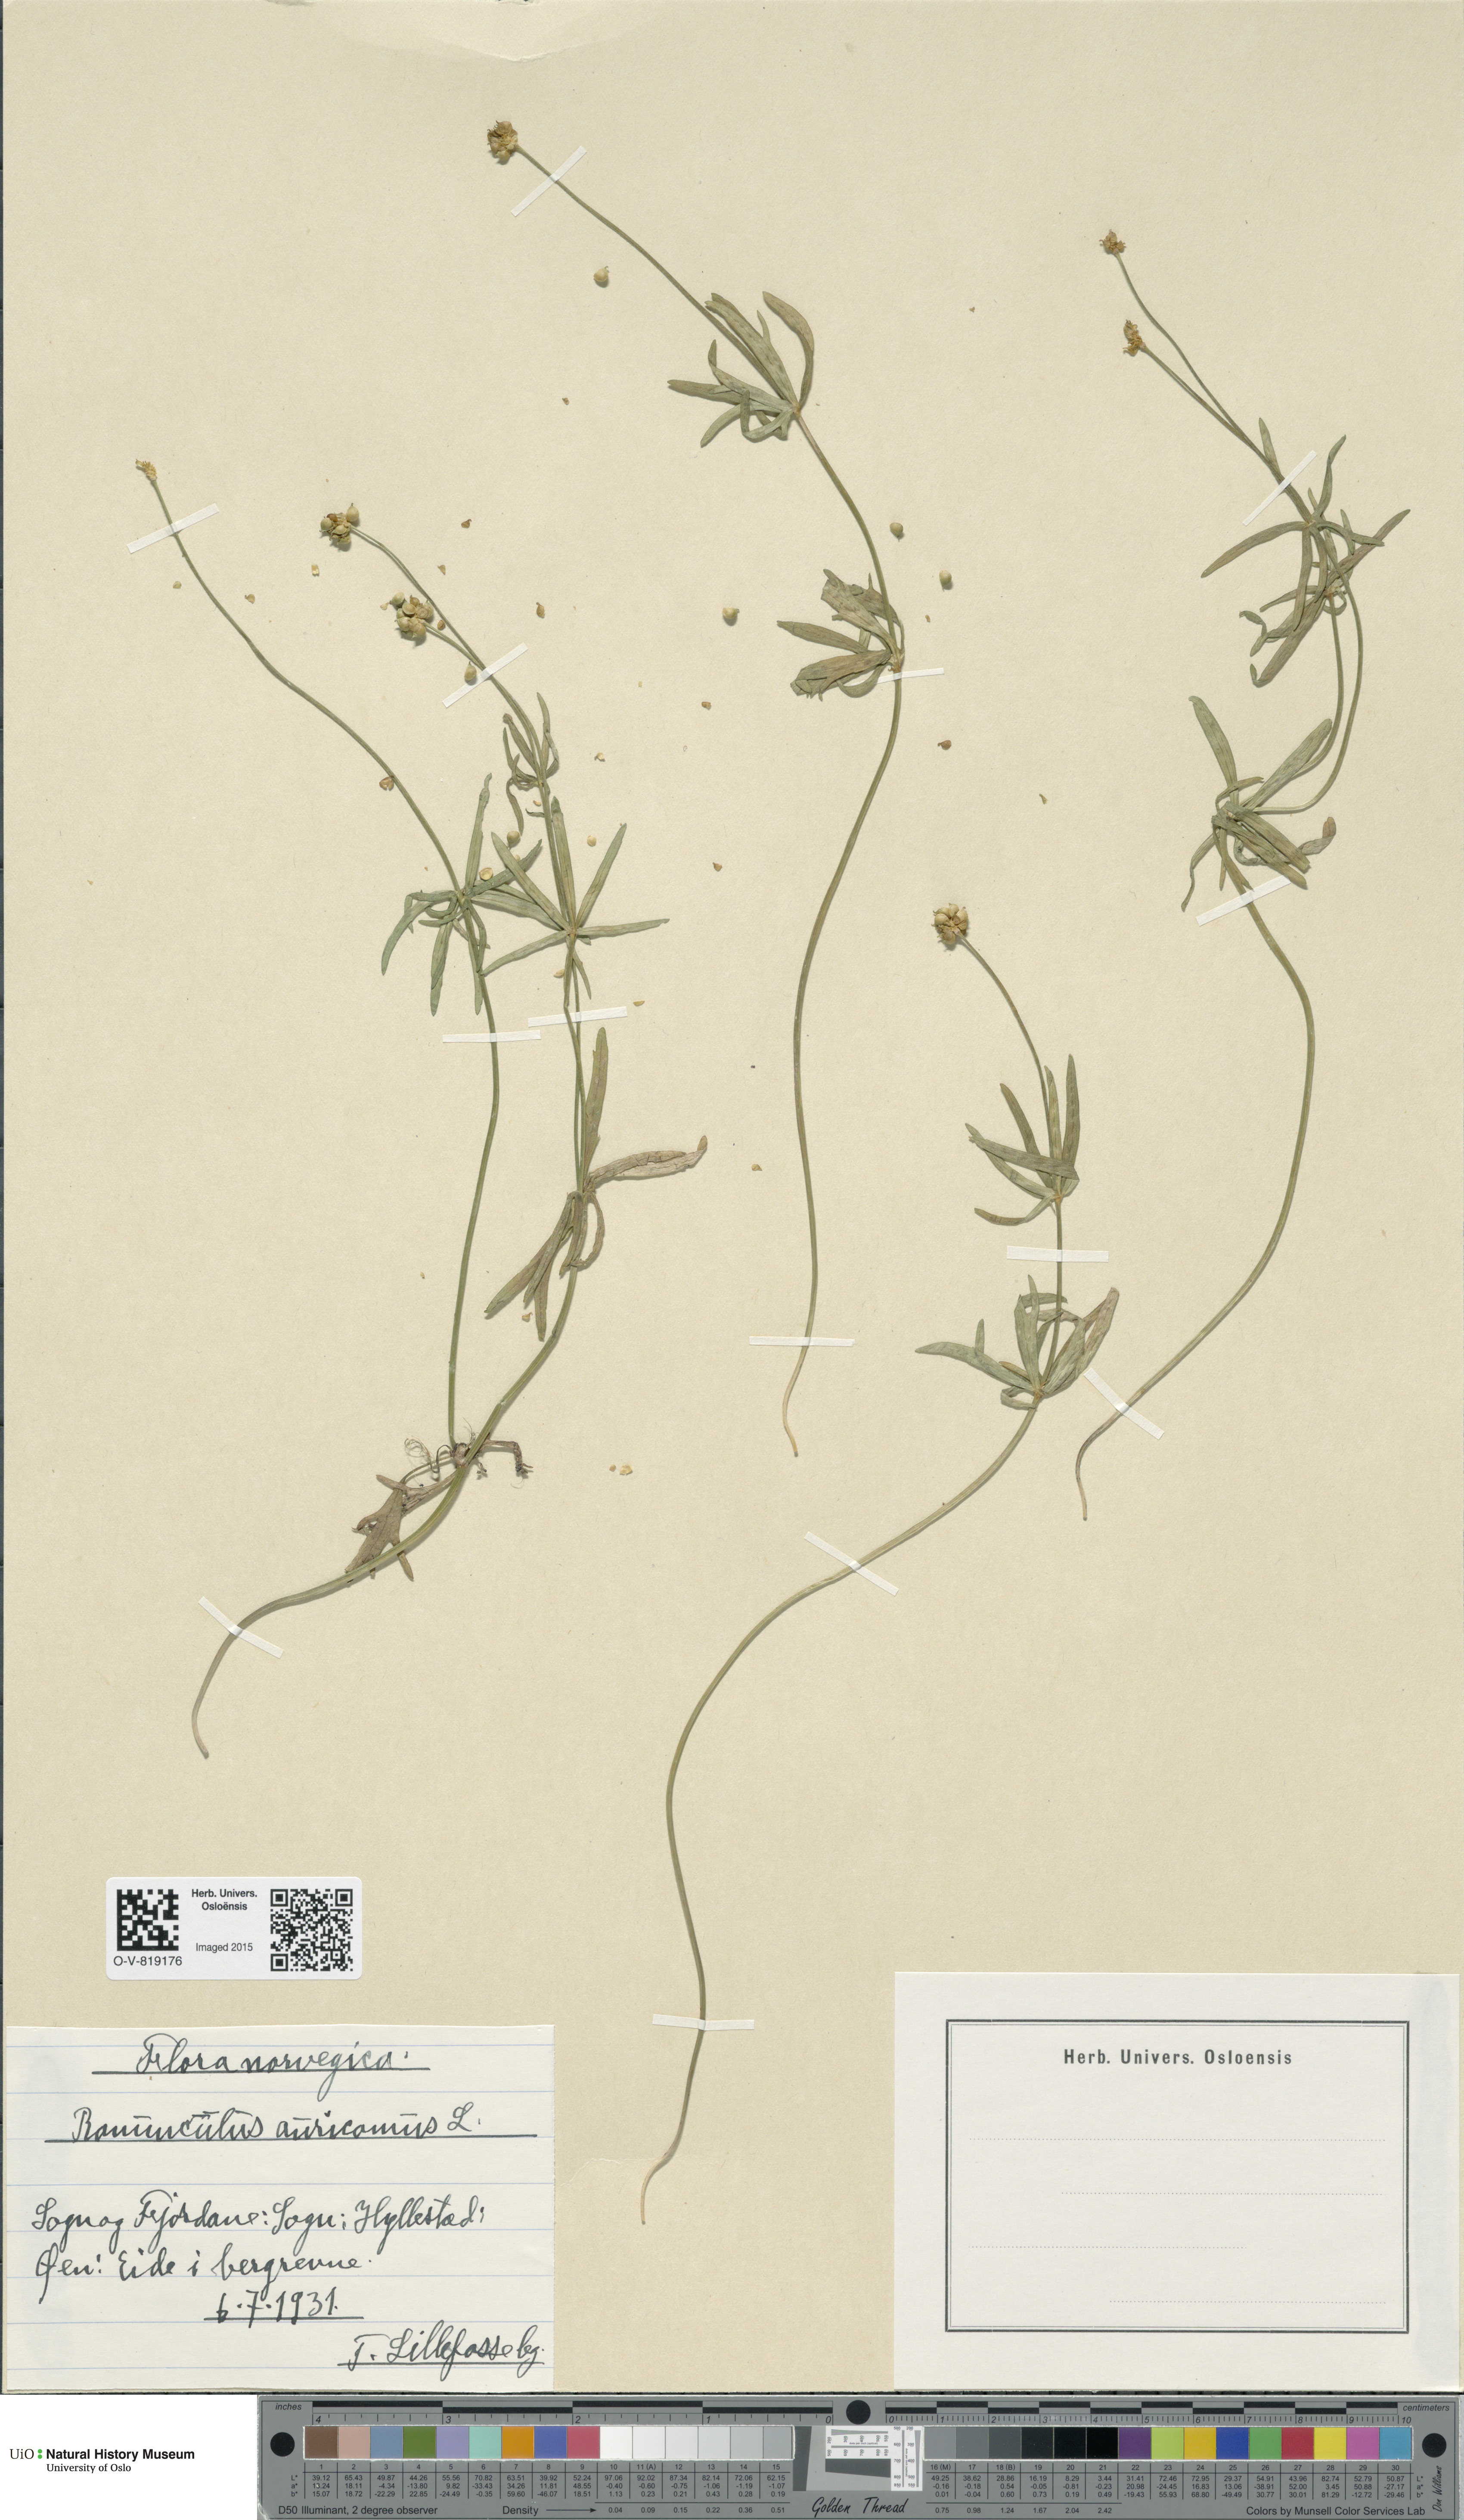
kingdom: Plantae
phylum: Tracheophyta
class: Magnoliopsida
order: Ranunculales
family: Ranunculaceae
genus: Ranunculus
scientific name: Ranunculus auricomus
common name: Goldilocks buttercup
